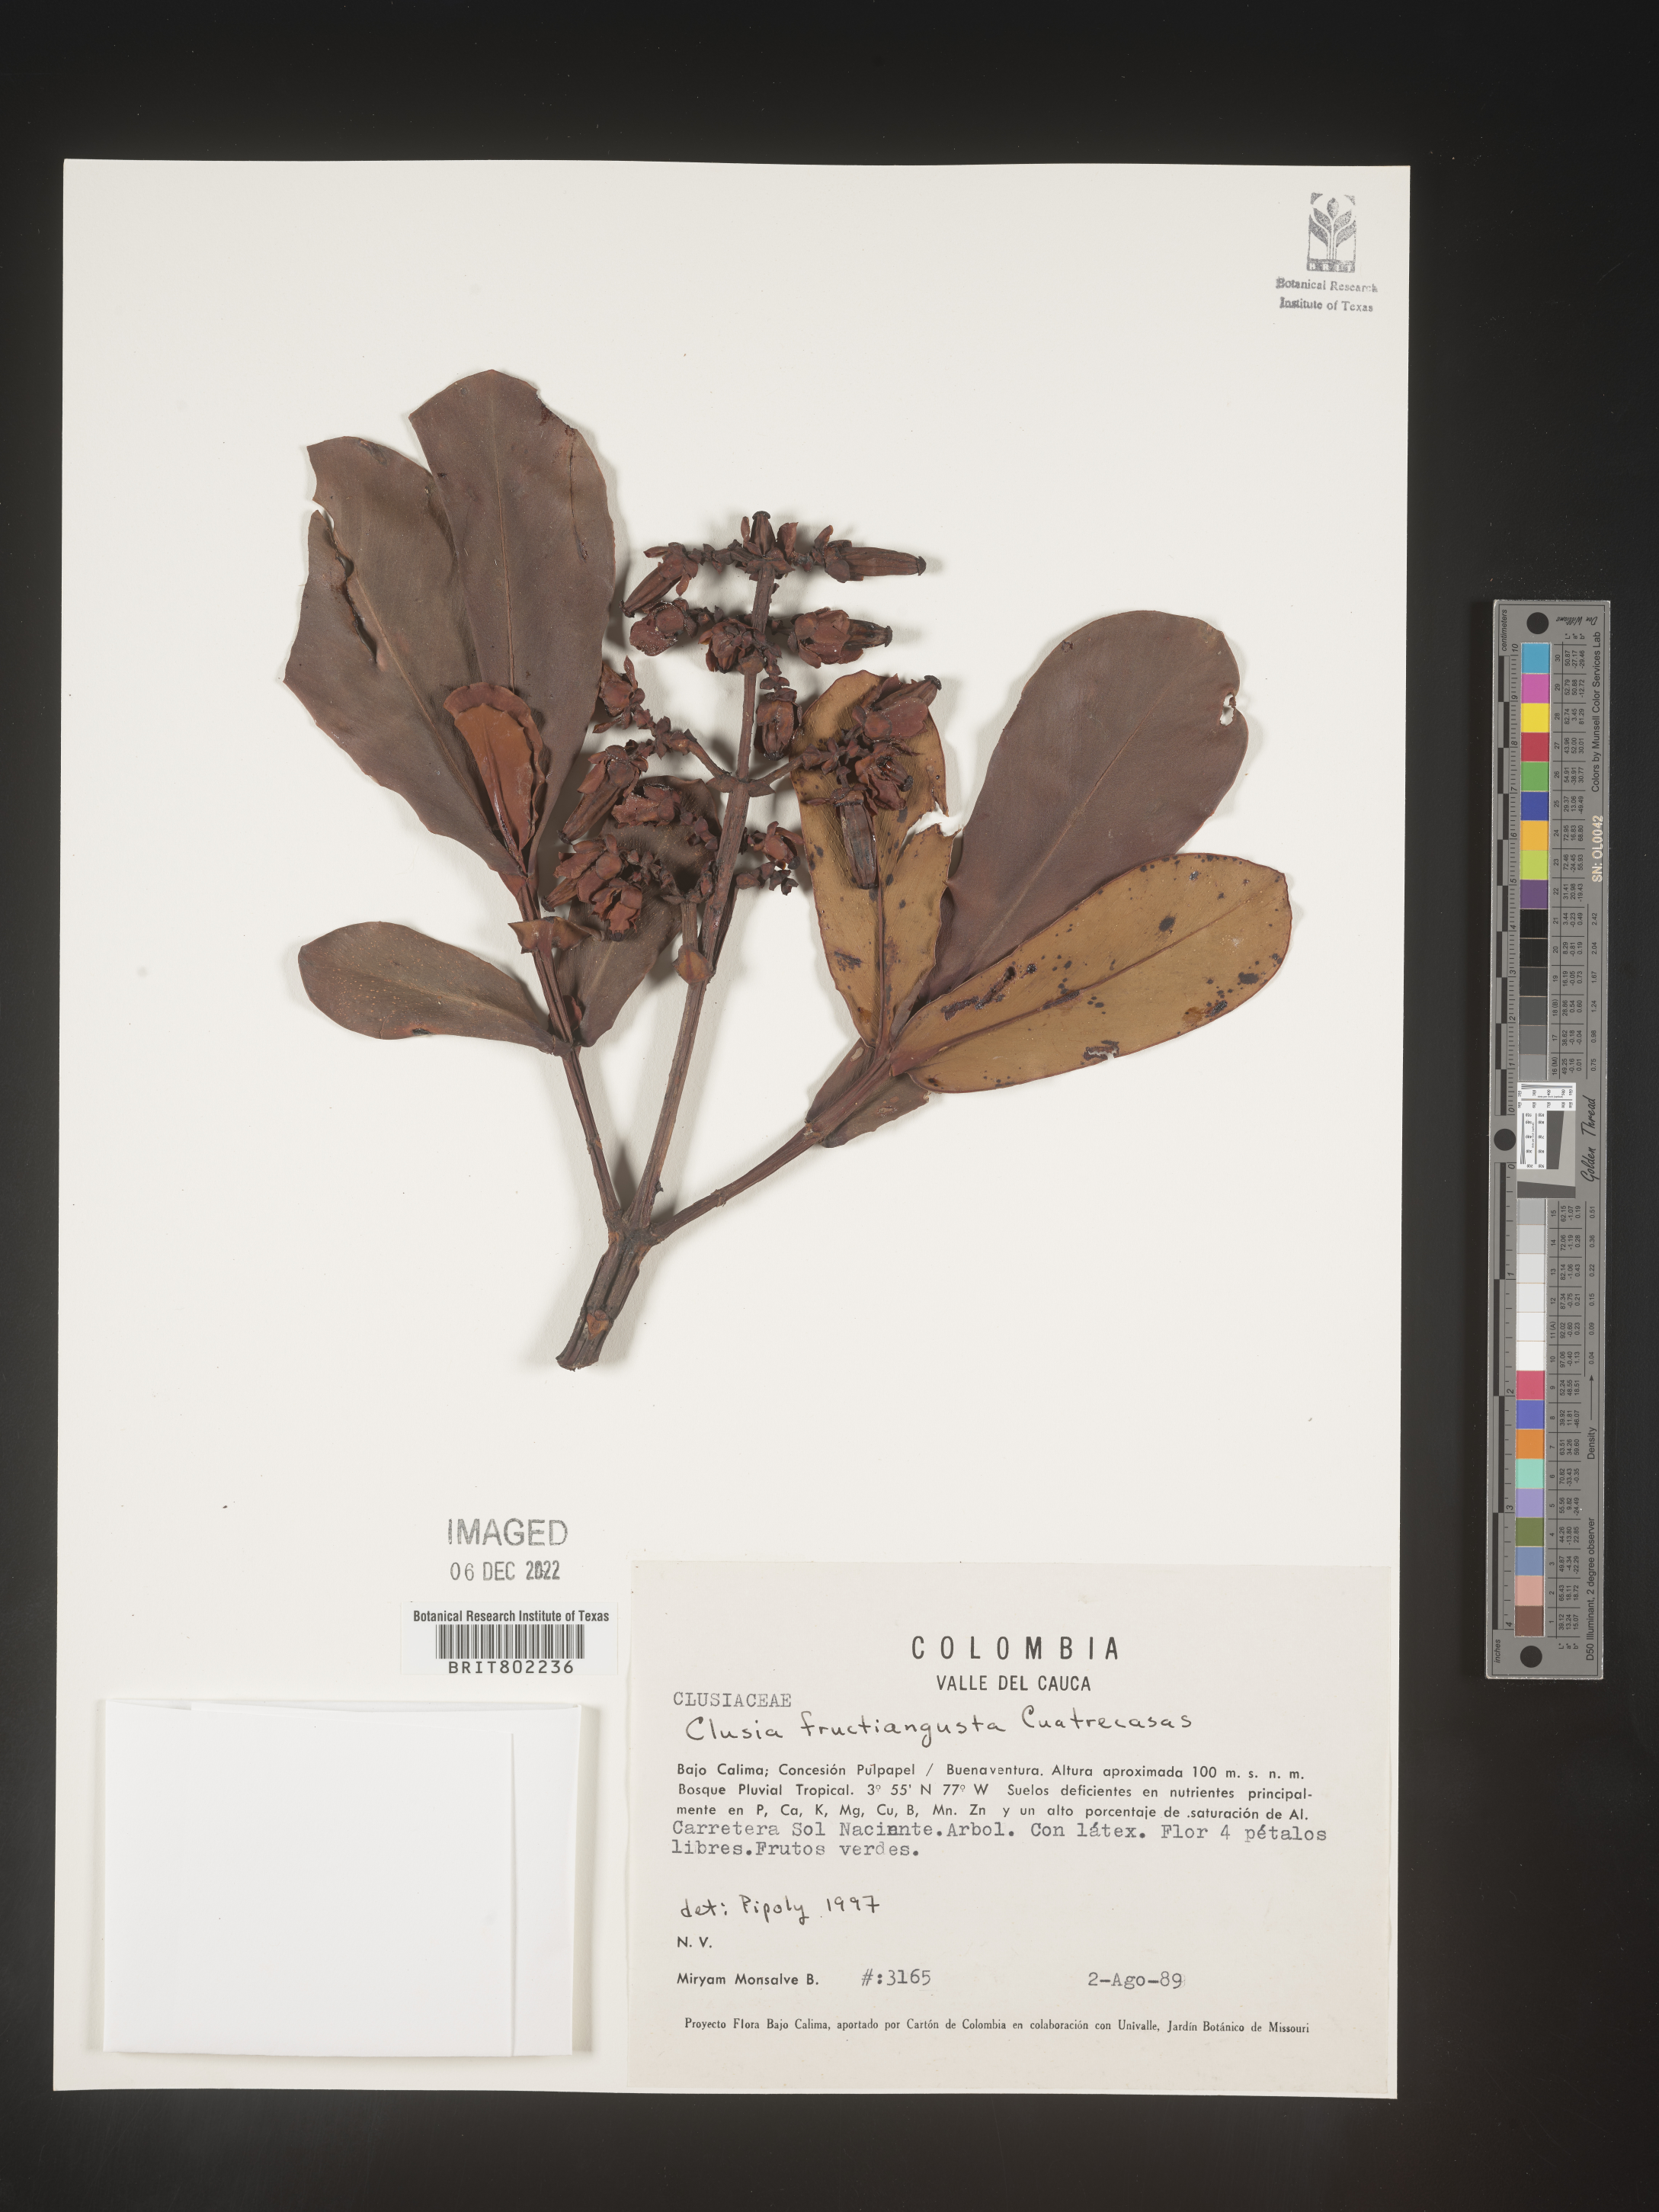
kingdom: Plantae
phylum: Tracheophyta
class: Magnoliopsida
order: Malpighiales
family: Clusiaceae
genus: Clusia
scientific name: Clusia fructiangusta
